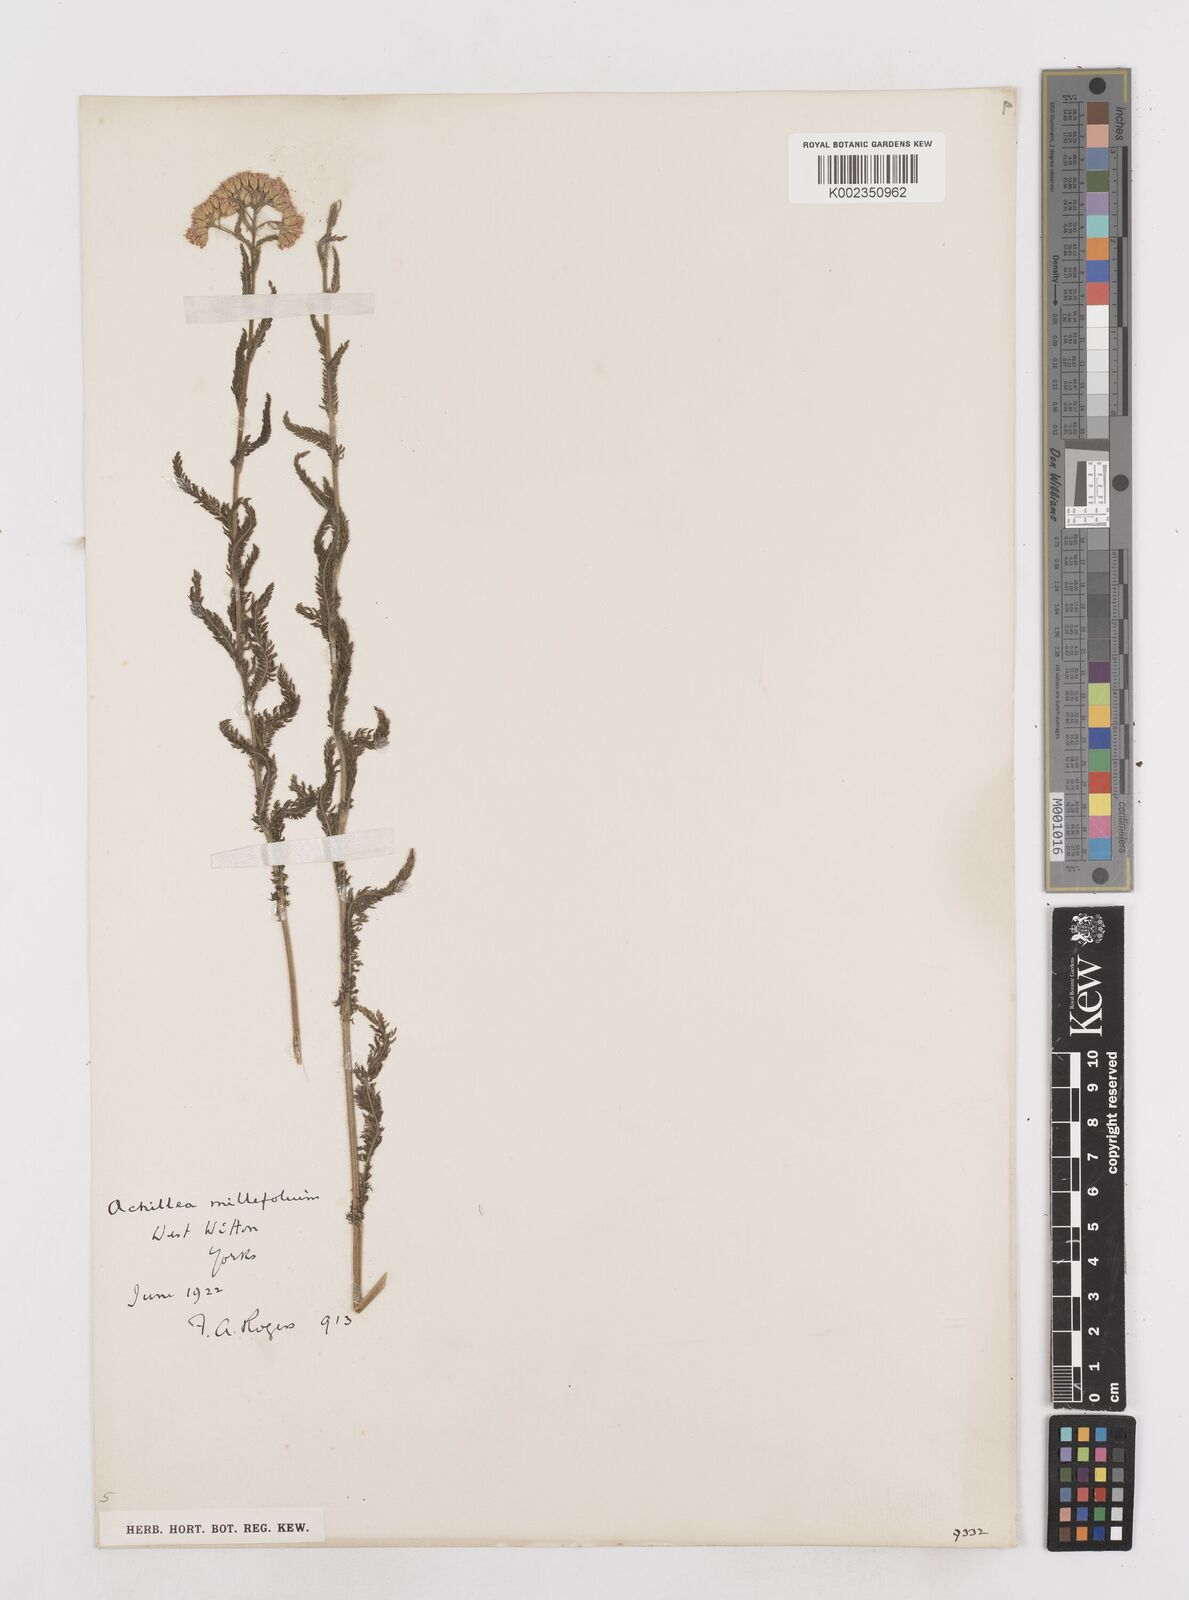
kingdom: Plantae
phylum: Tracheophyta
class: Magnoliopsida
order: Asterales
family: Asteraceae
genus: Achillea
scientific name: Achillea
